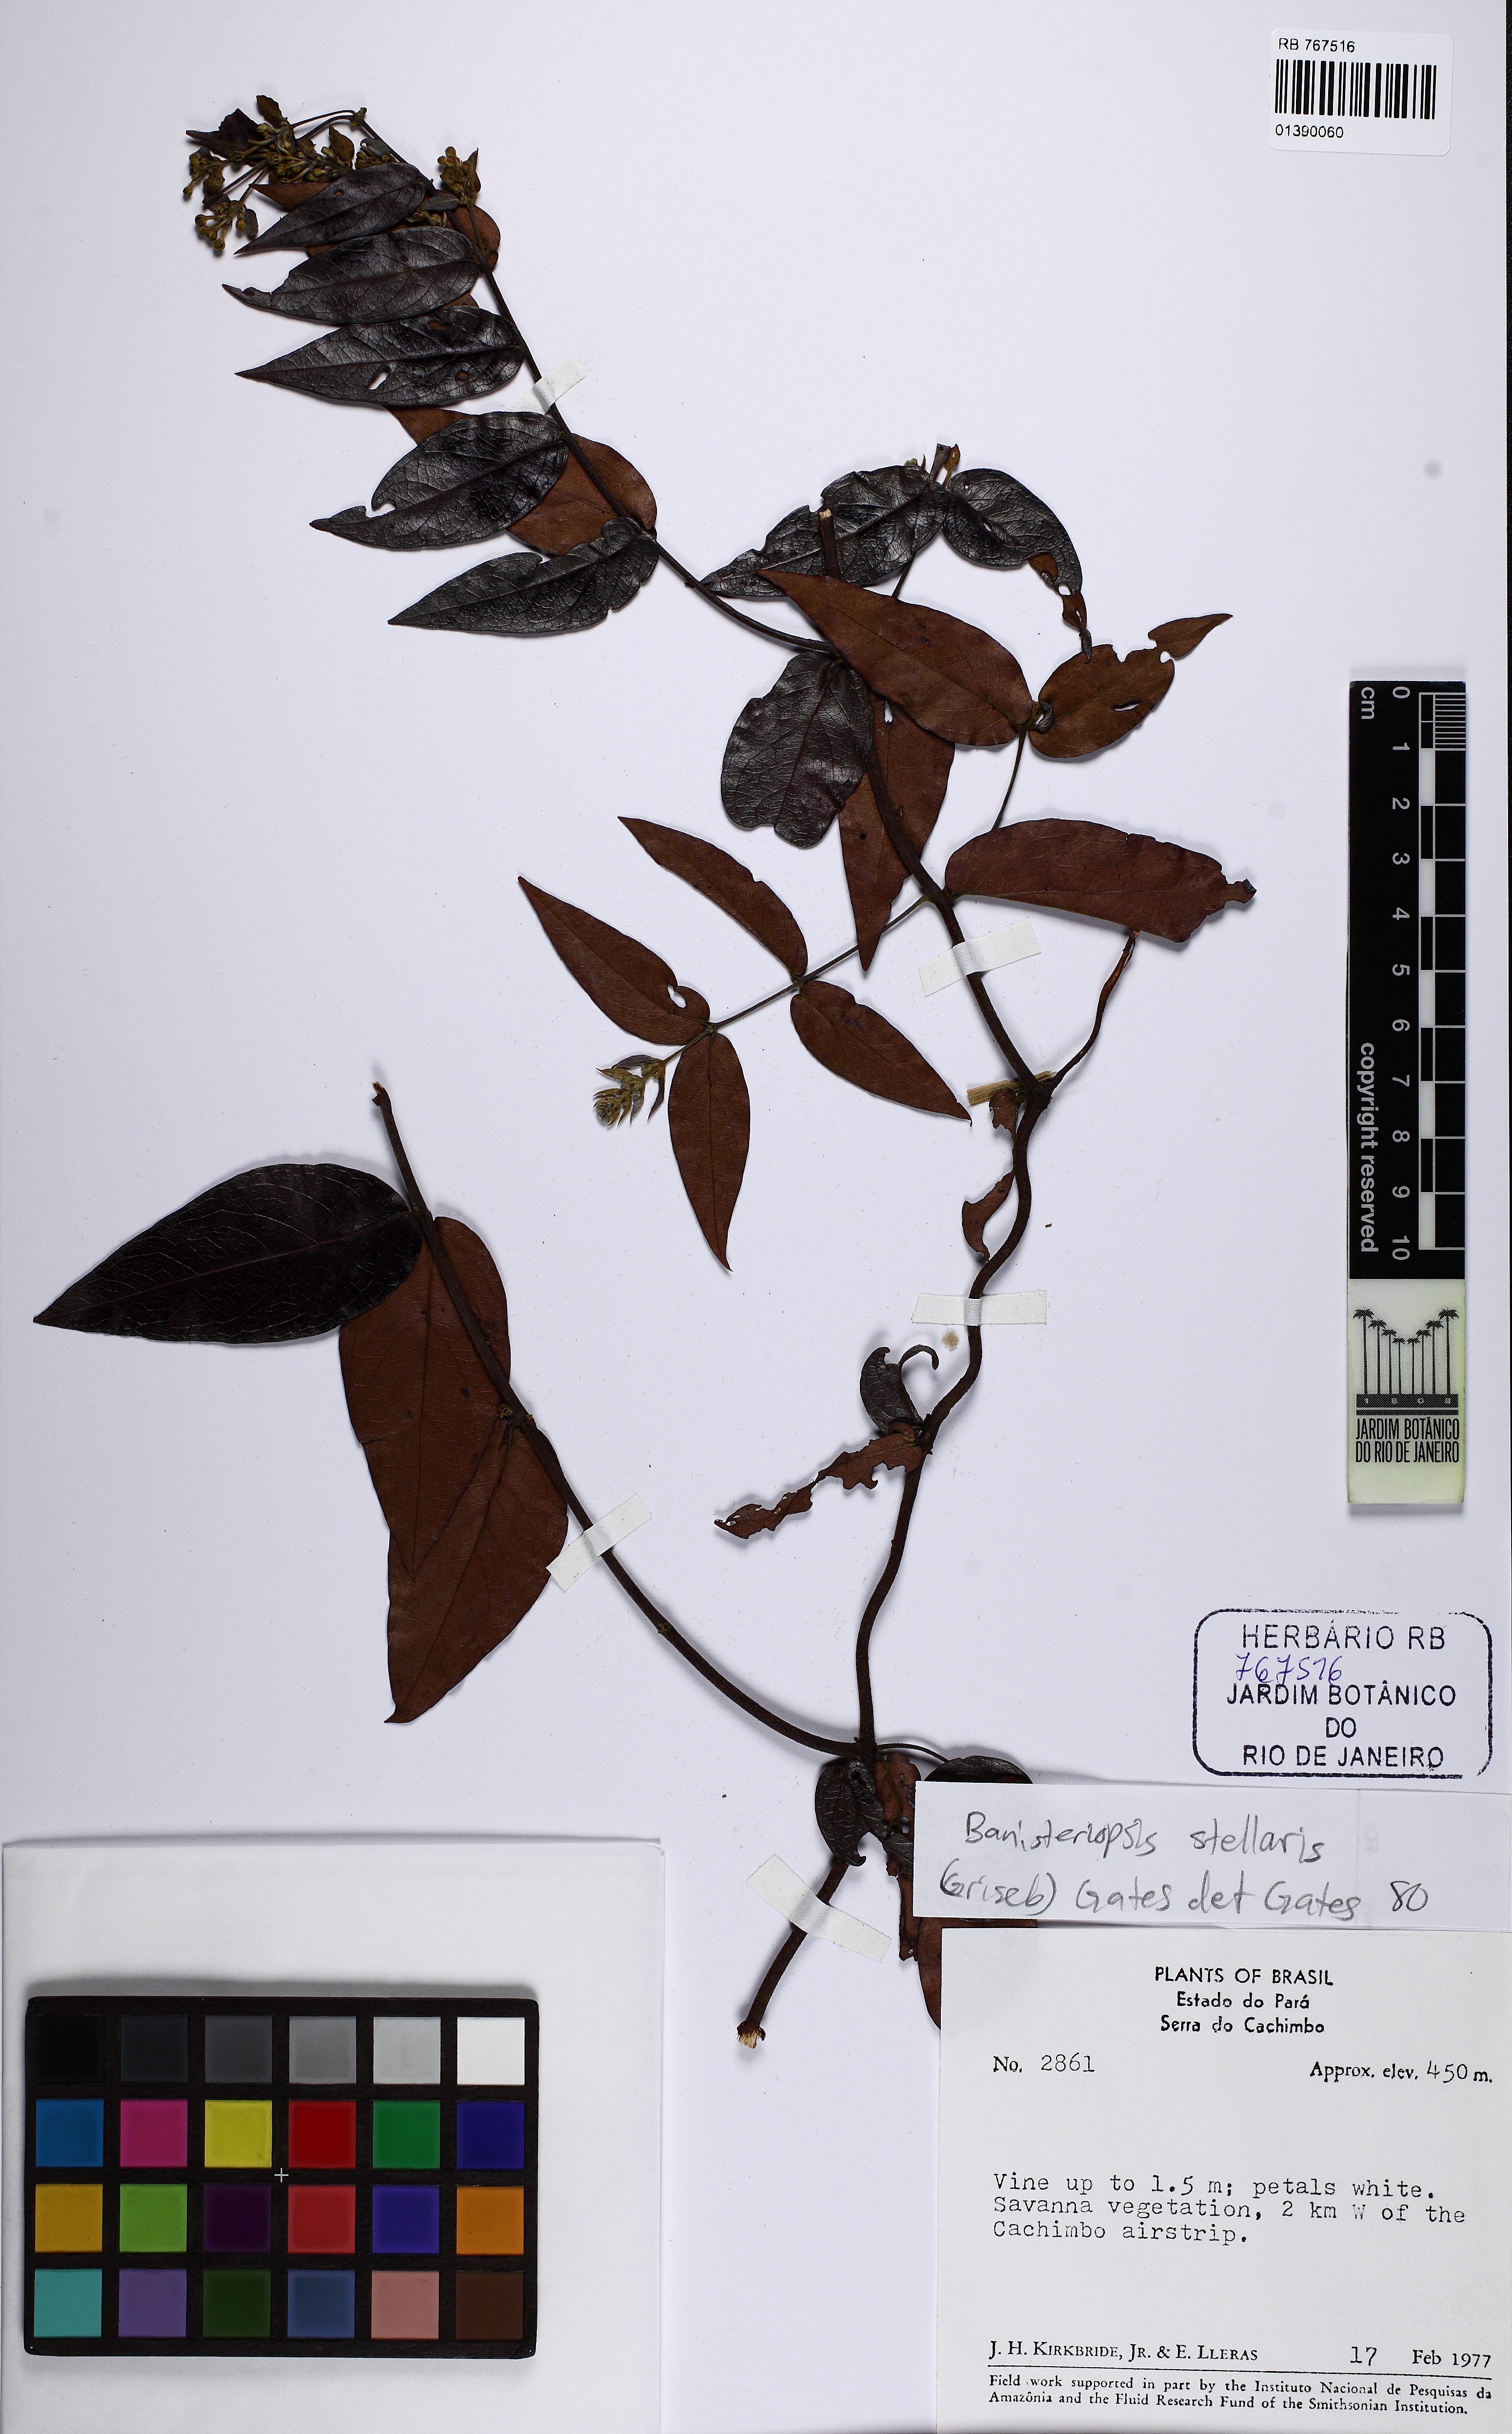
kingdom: Plantae
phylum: Tracheophyta
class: Magnoliopsida
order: Malpighiales
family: Malpighiaceae
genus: Banisteriopsis
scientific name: Banisteriopsis stellaris
